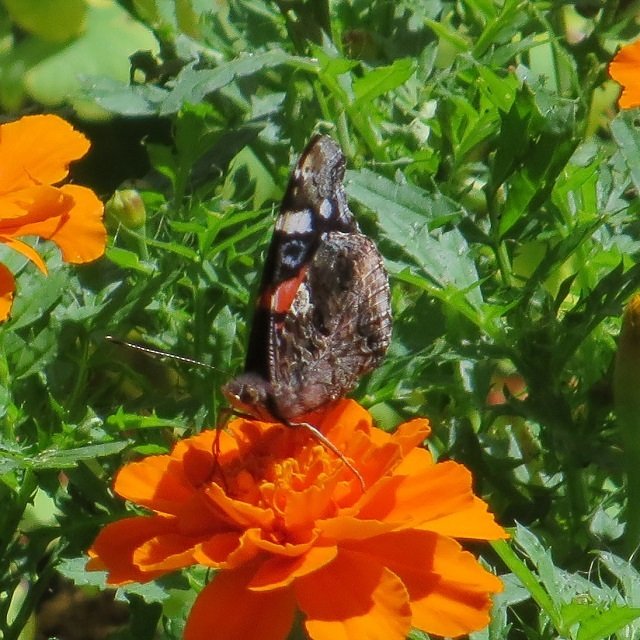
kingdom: Animalia
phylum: Arthropoda
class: Insecta
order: Lepidoptera
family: Nymphalidae
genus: Vanessa
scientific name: Vanessa atalanta
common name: Red Admiral
